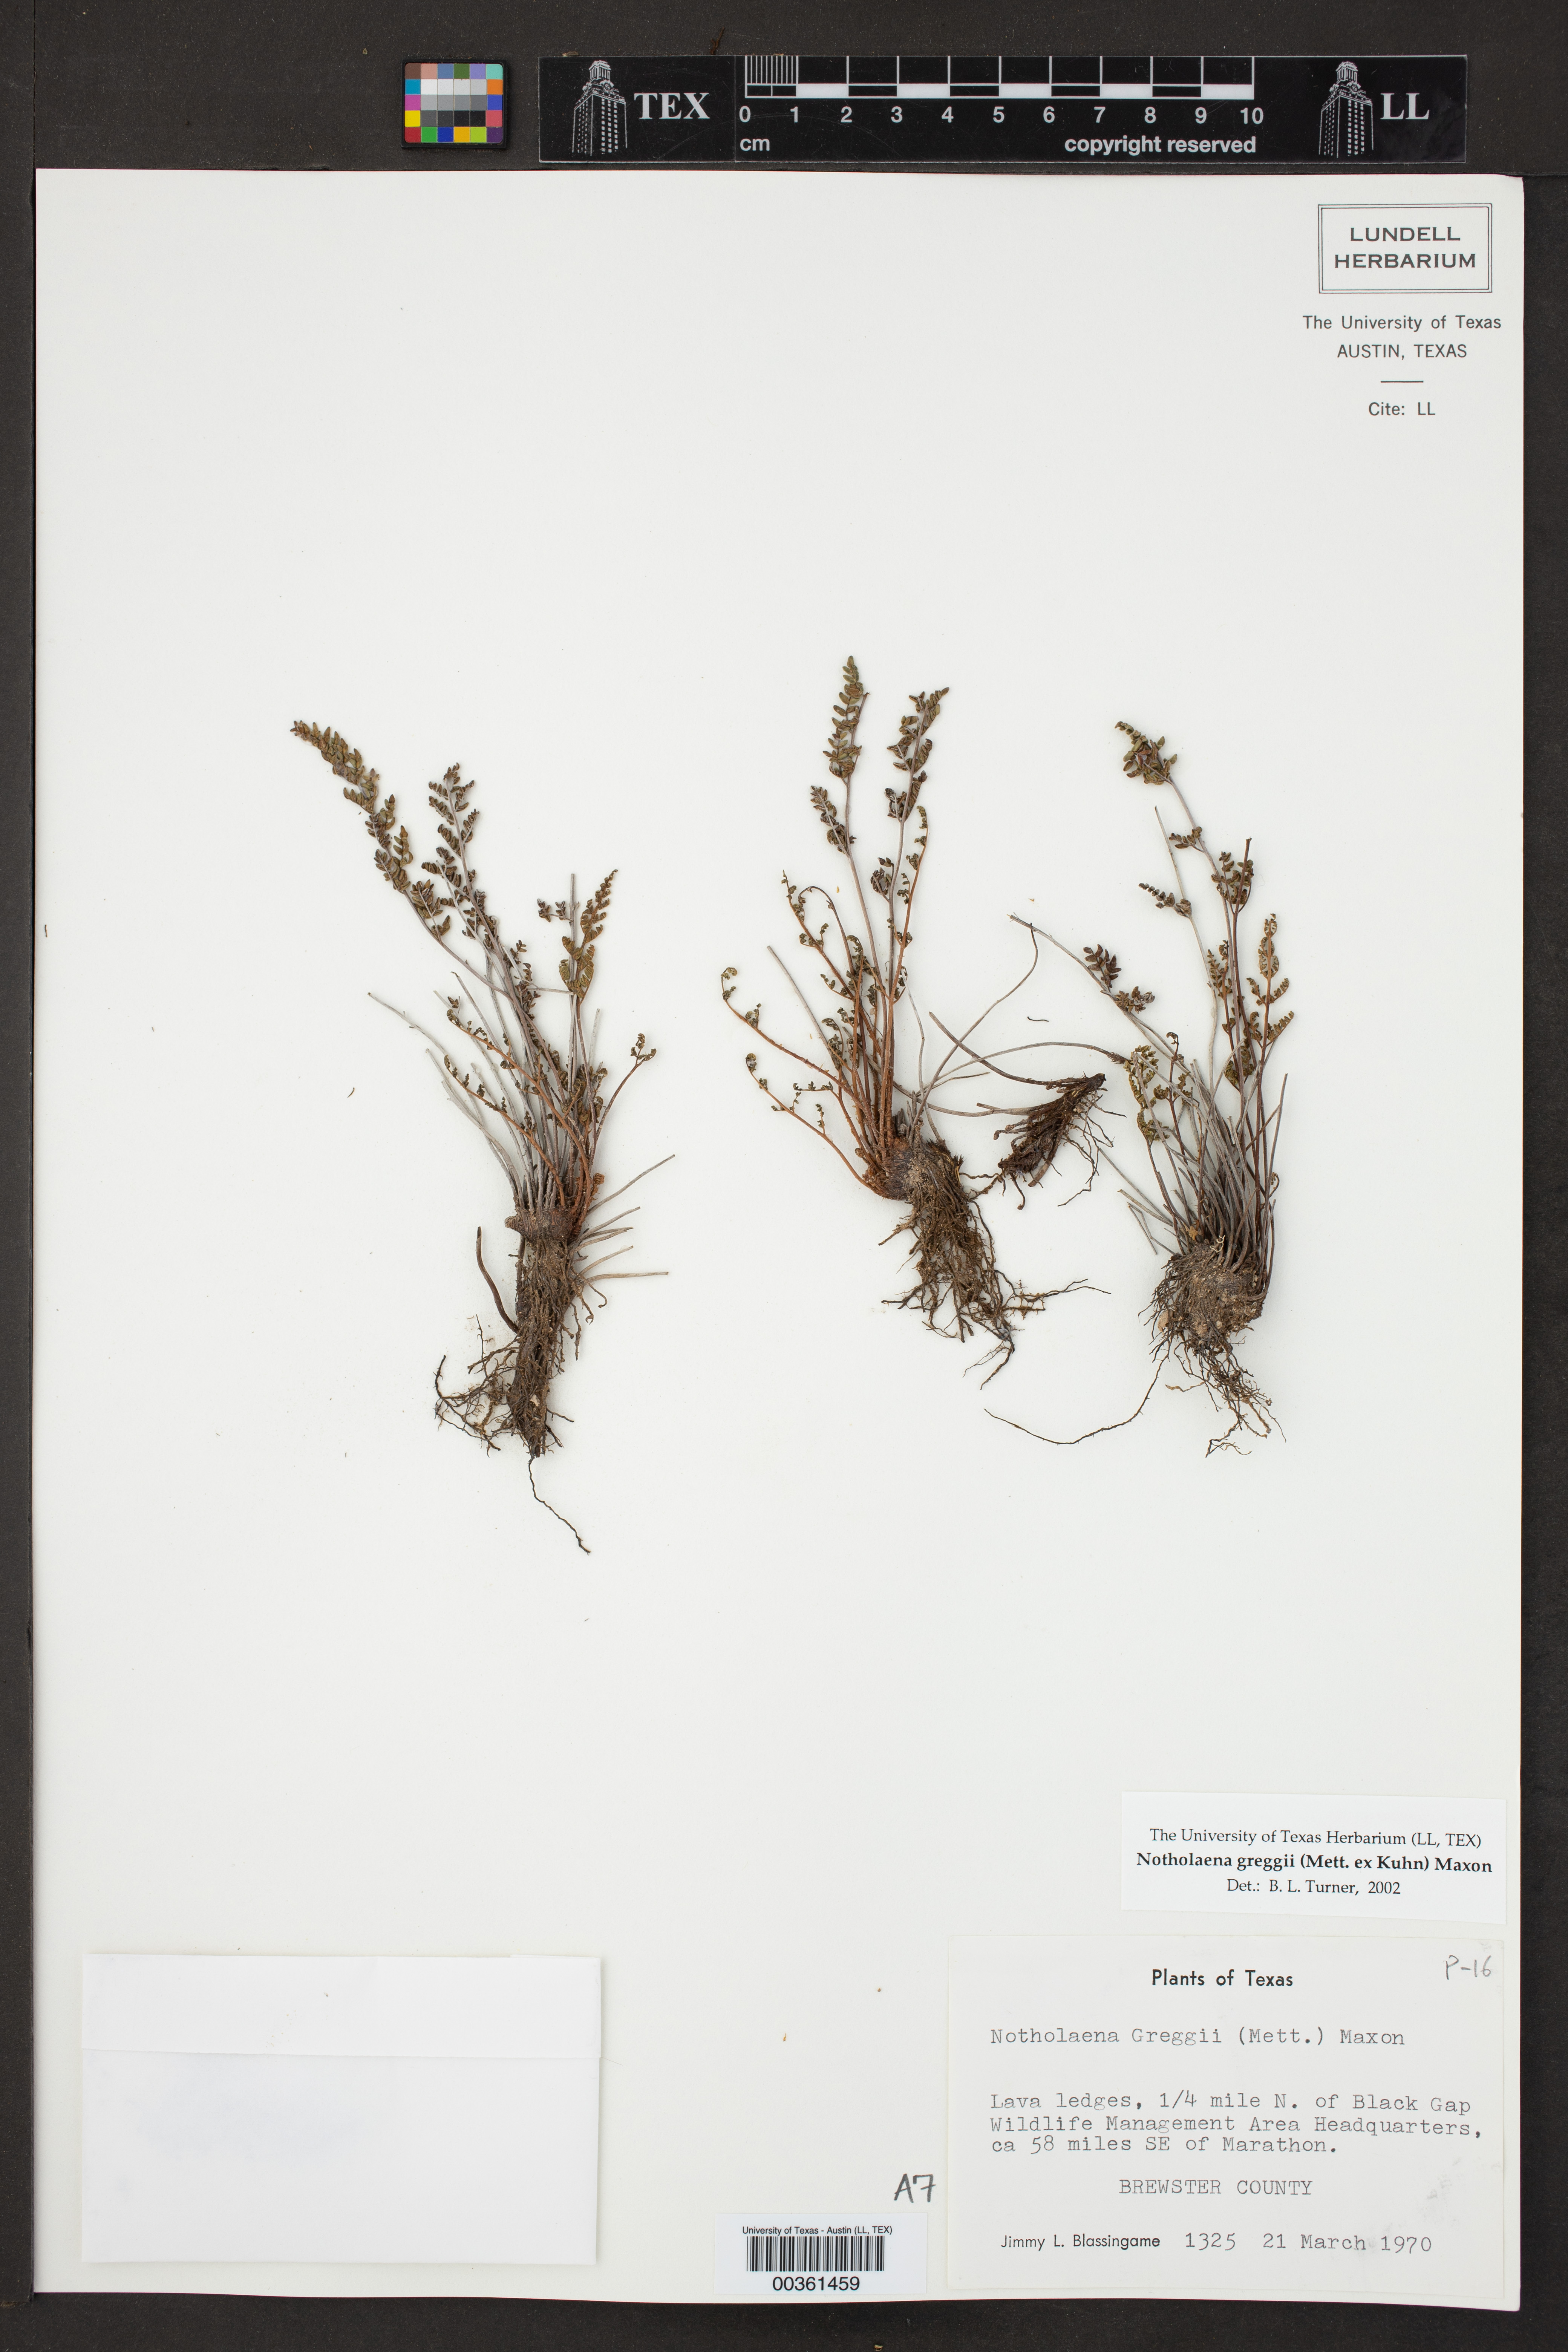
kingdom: Plantae
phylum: Tracheophyta
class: Polypodiopsida
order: Polypodiales
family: Pteridaceae
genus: Notholaena
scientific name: Notholaena greggii
